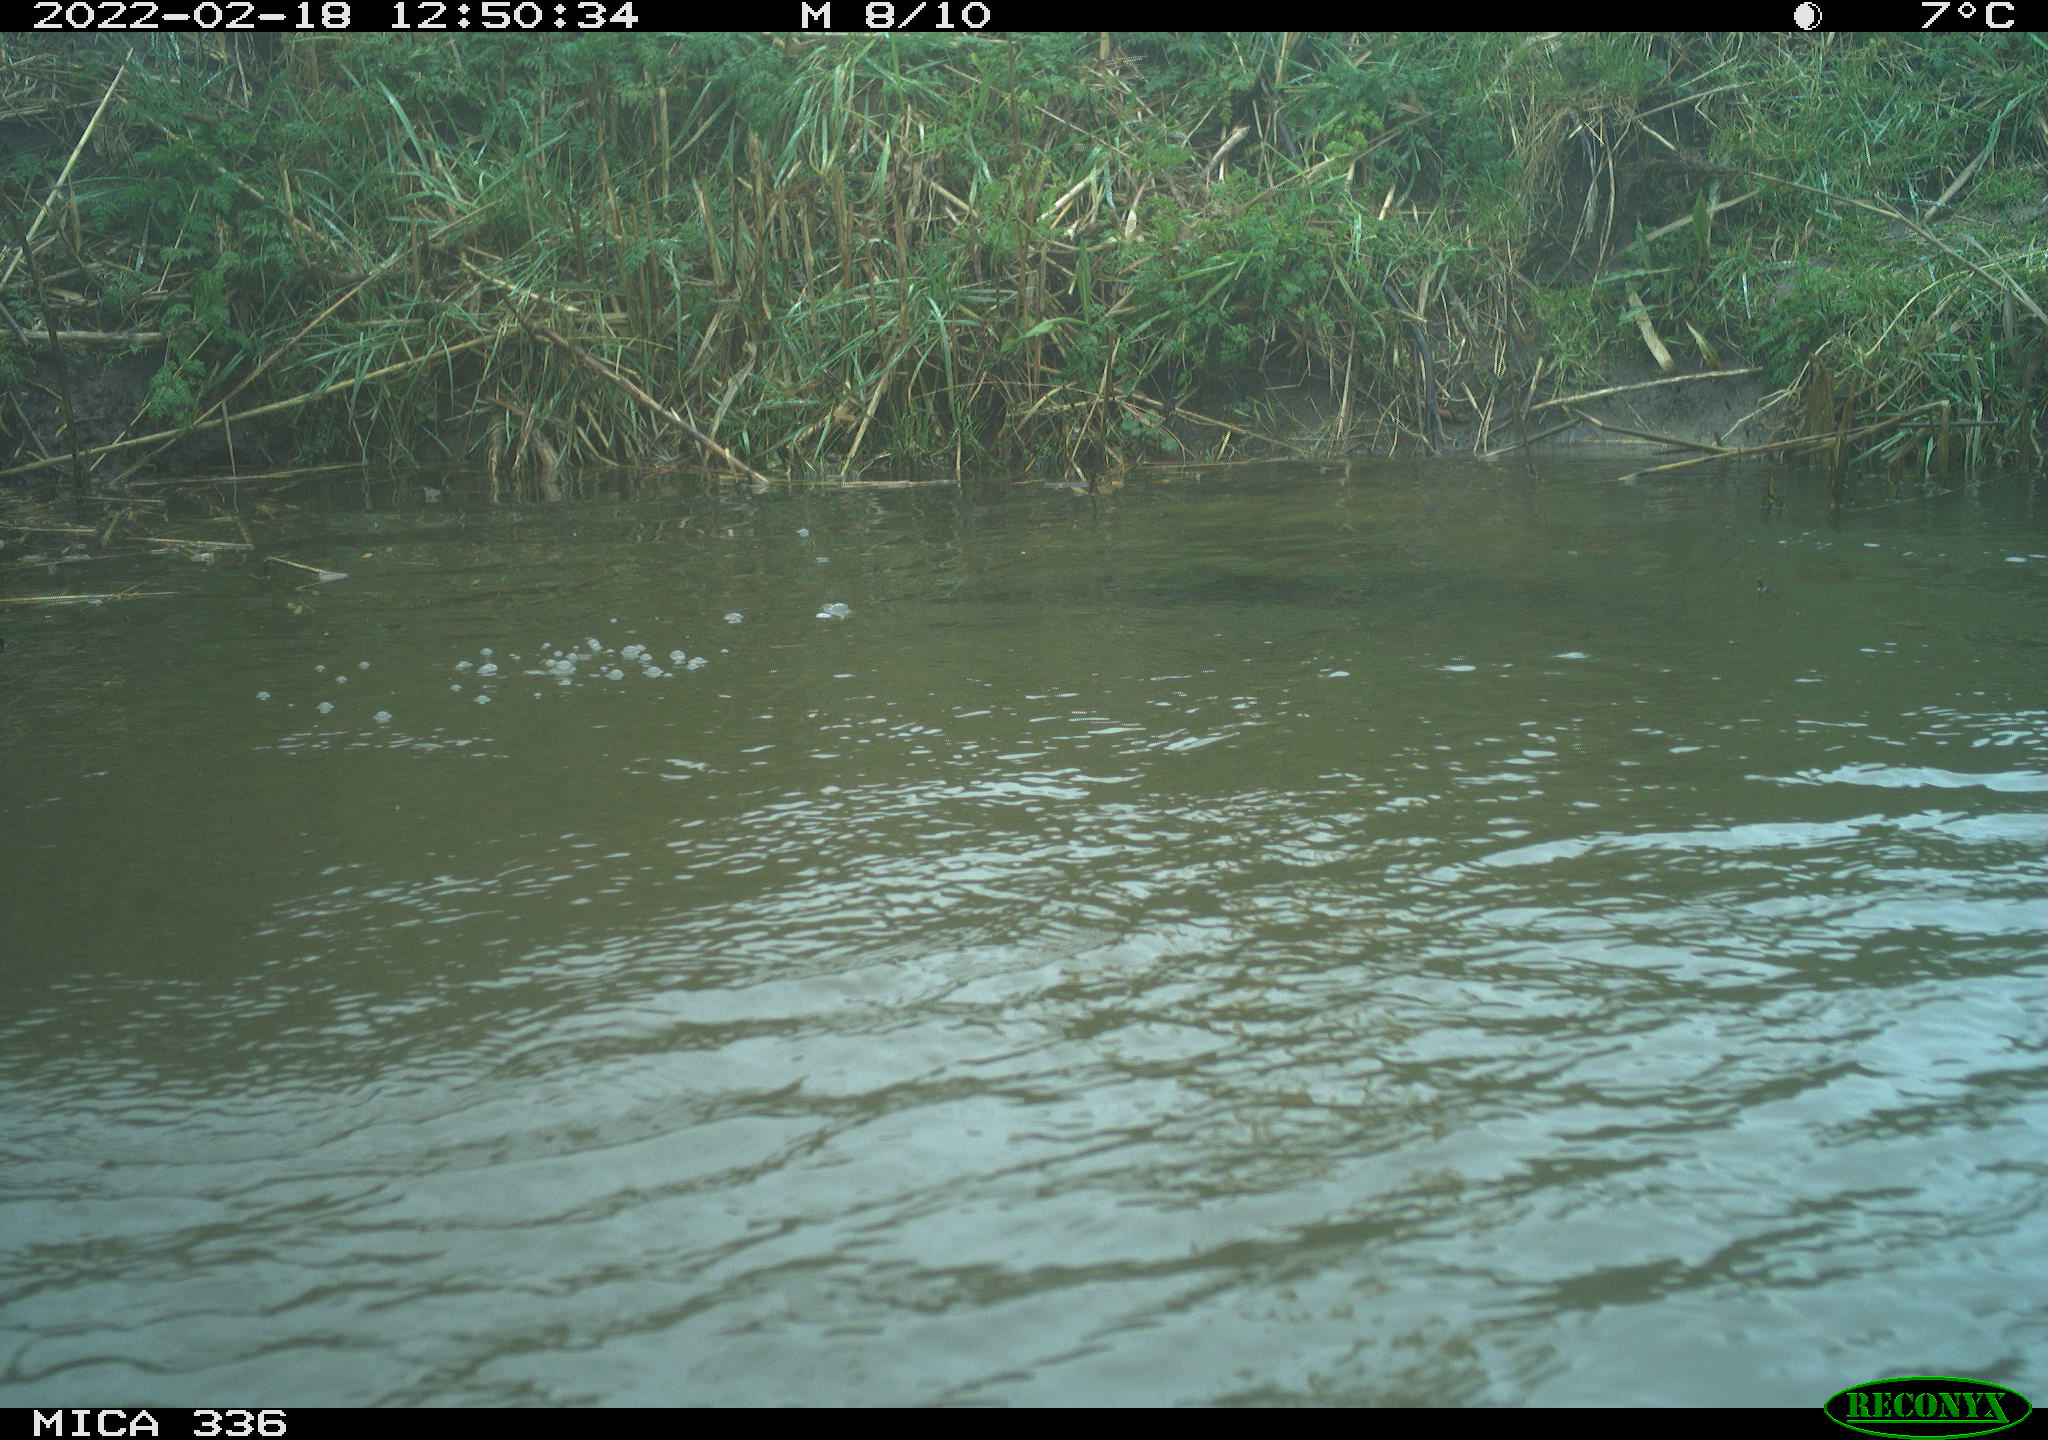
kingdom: Animalia
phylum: Chordata
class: Aves
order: Suliformes
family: Phalacrocoracidae
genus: Phalacrocorax
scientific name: Phalacrocorax carbo
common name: Great cormorant
